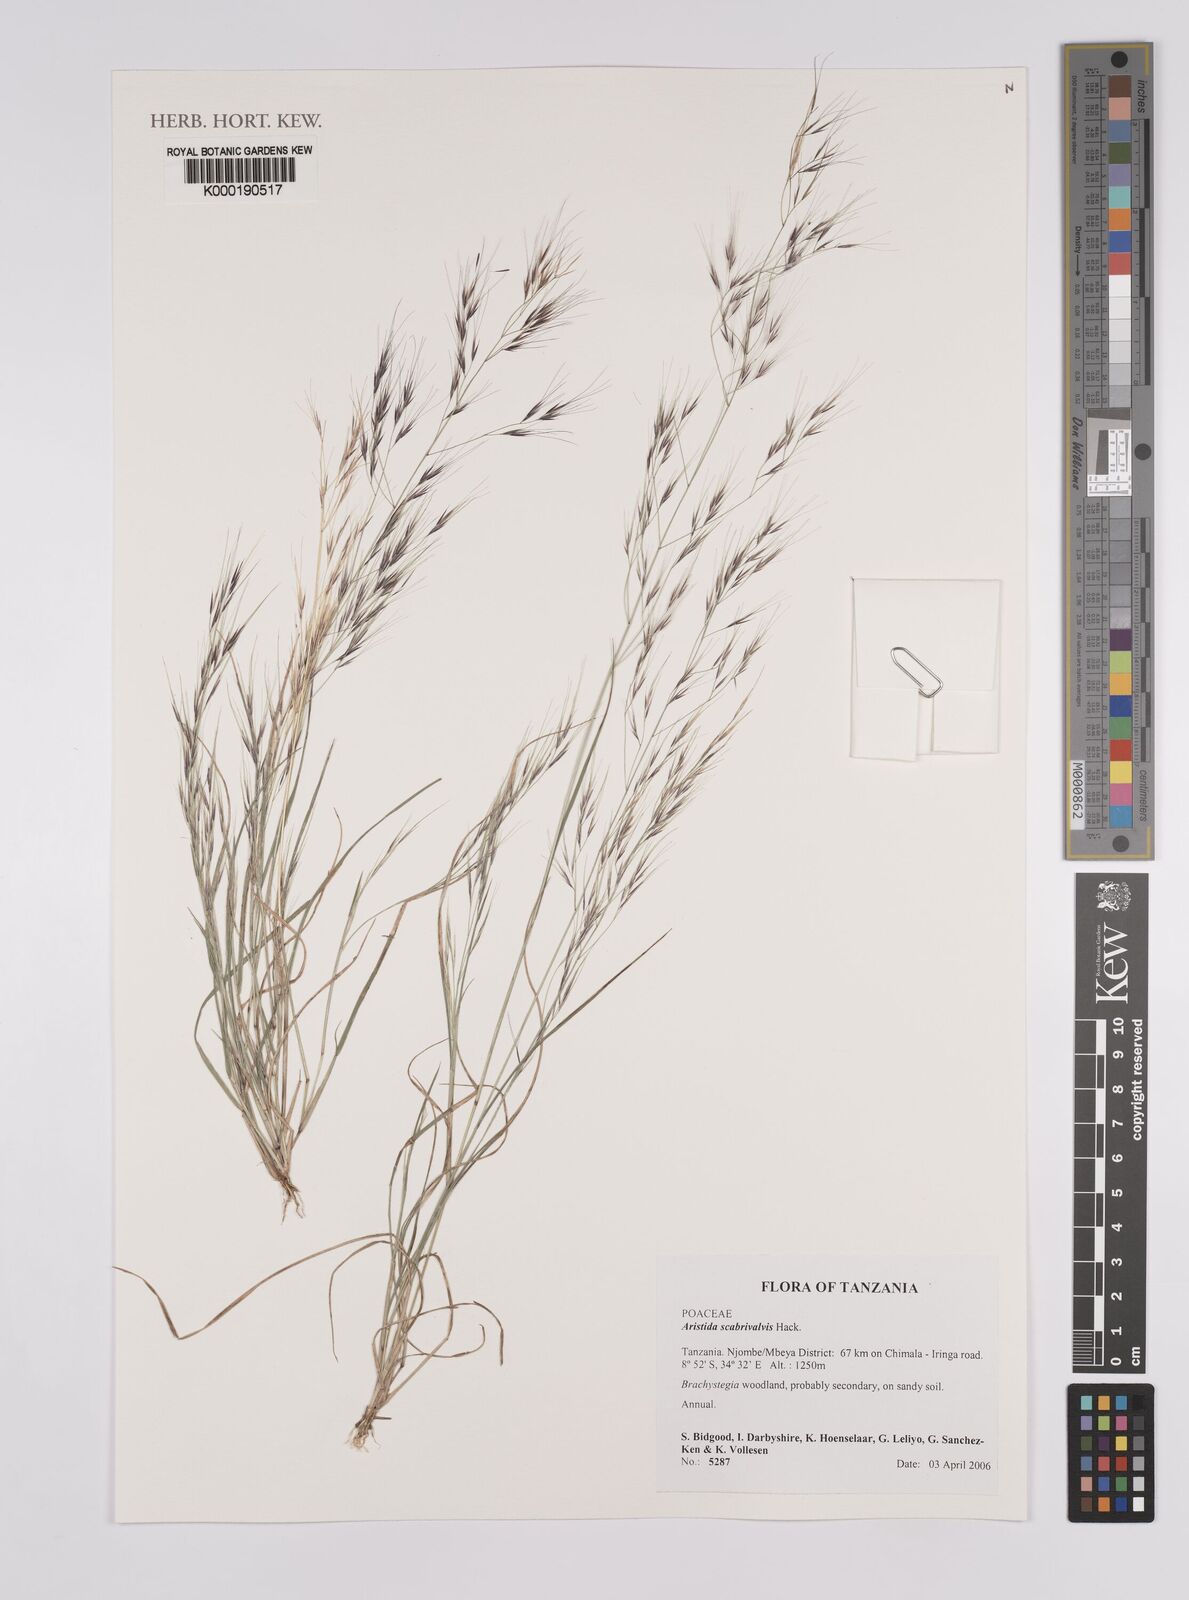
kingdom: Plantae
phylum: Tracheophyta
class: Liliopsida
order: Poales
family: Poaceae
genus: Aristida
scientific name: Aristida scabrivalvis
